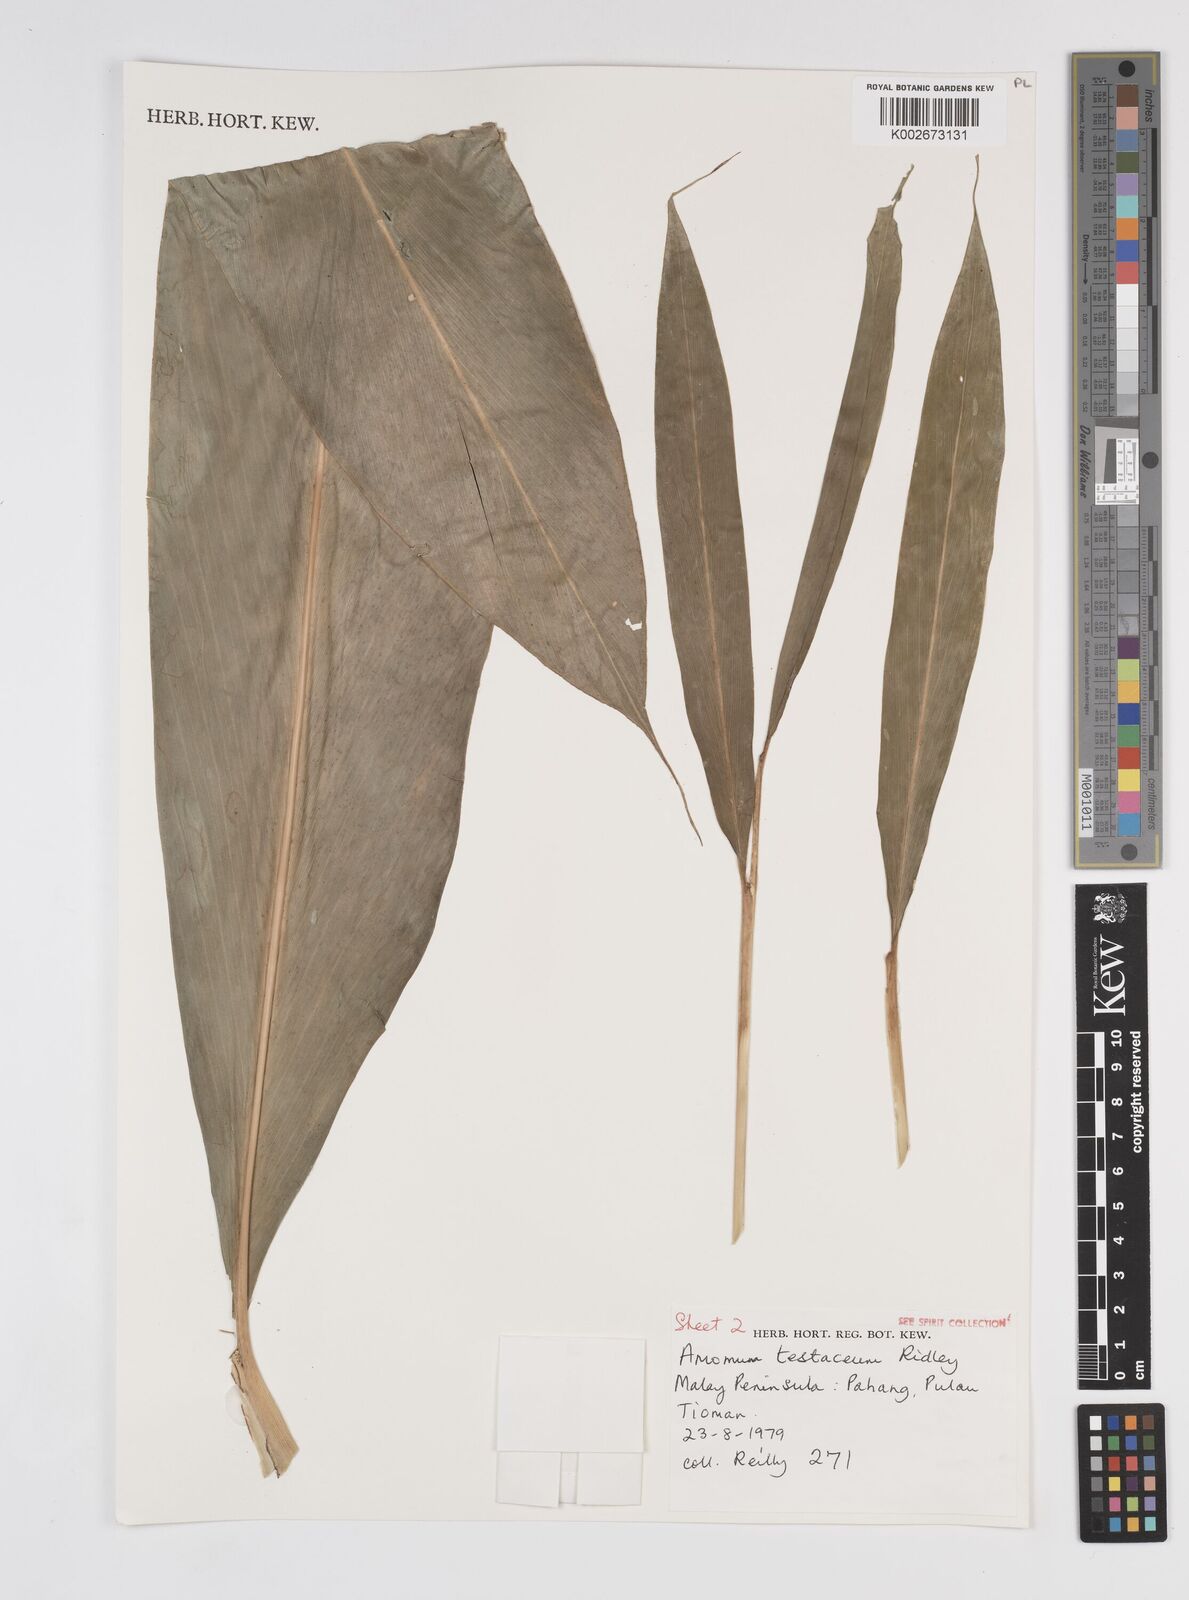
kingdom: Plantae
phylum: Tracheophyta
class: Liliopsida
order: Zingiberales
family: Zingiberaceae
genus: Wurfbainia
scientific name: Wurfbainia testacea
